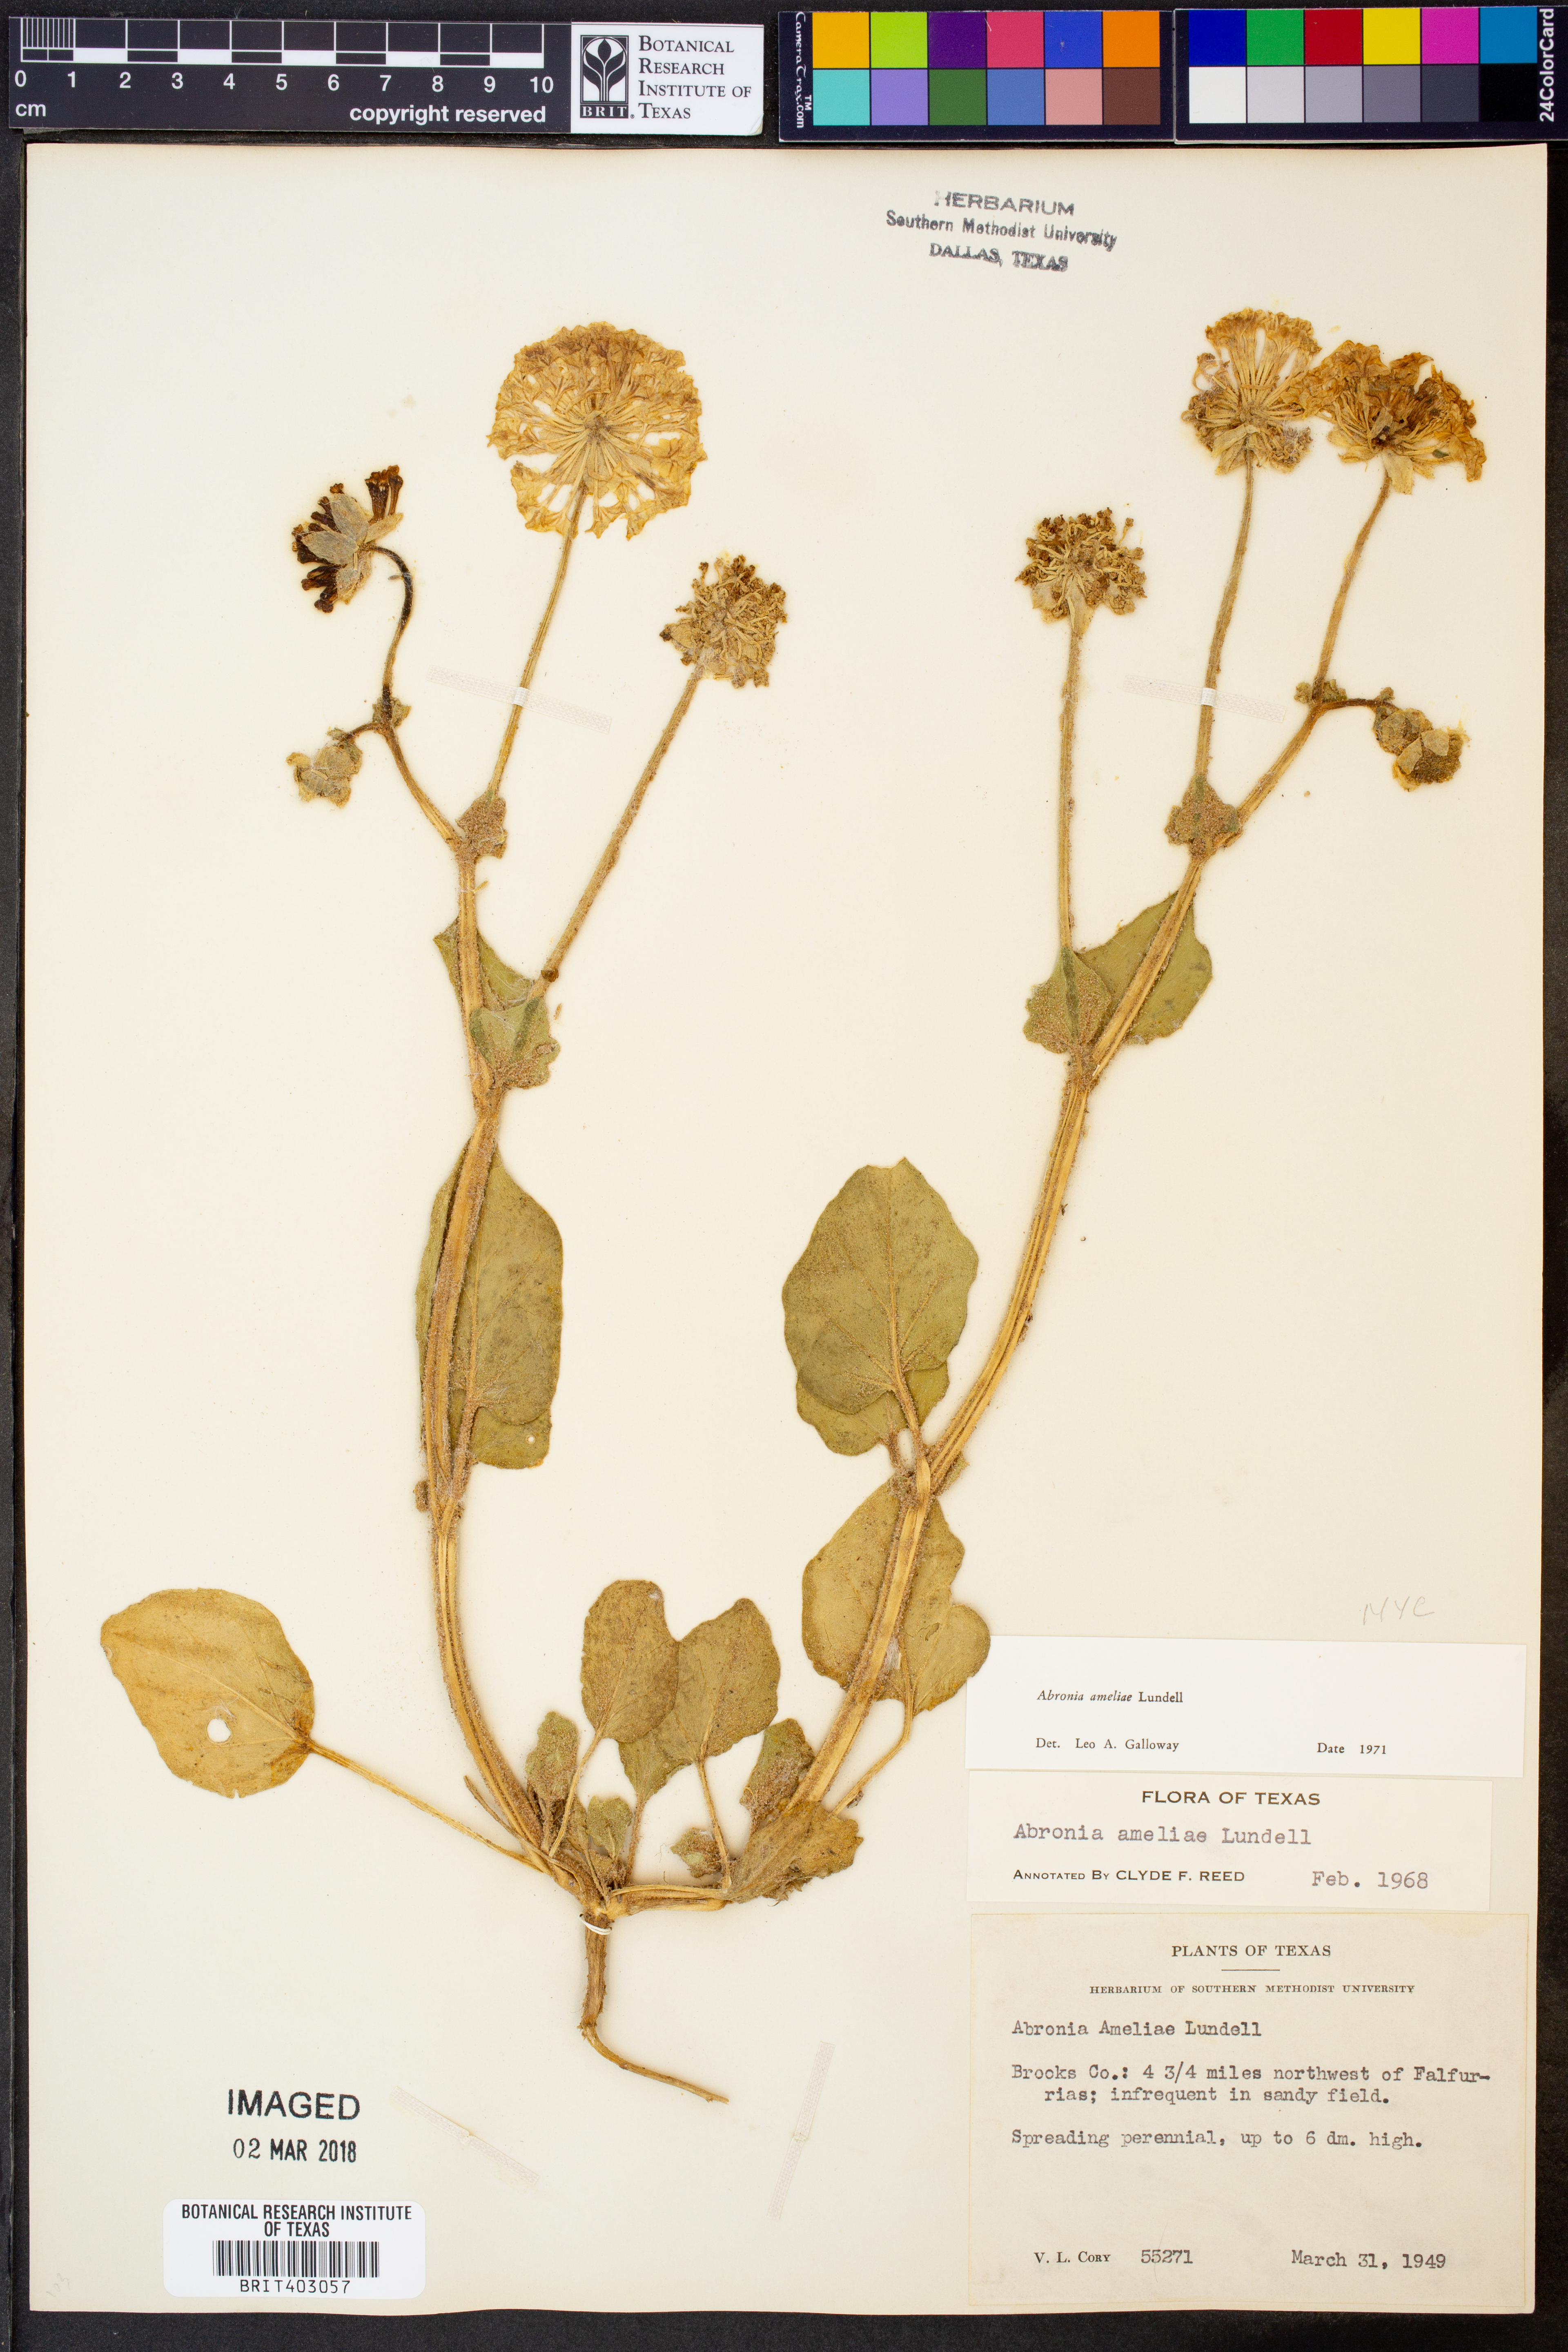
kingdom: Plantae
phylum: Tracheophyta
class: Magnoliopsida
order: Caryophyllales
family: Nyctaginaceae
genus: Abronia
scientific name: Abronia ameliae
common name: Amelia's sand-verbena
